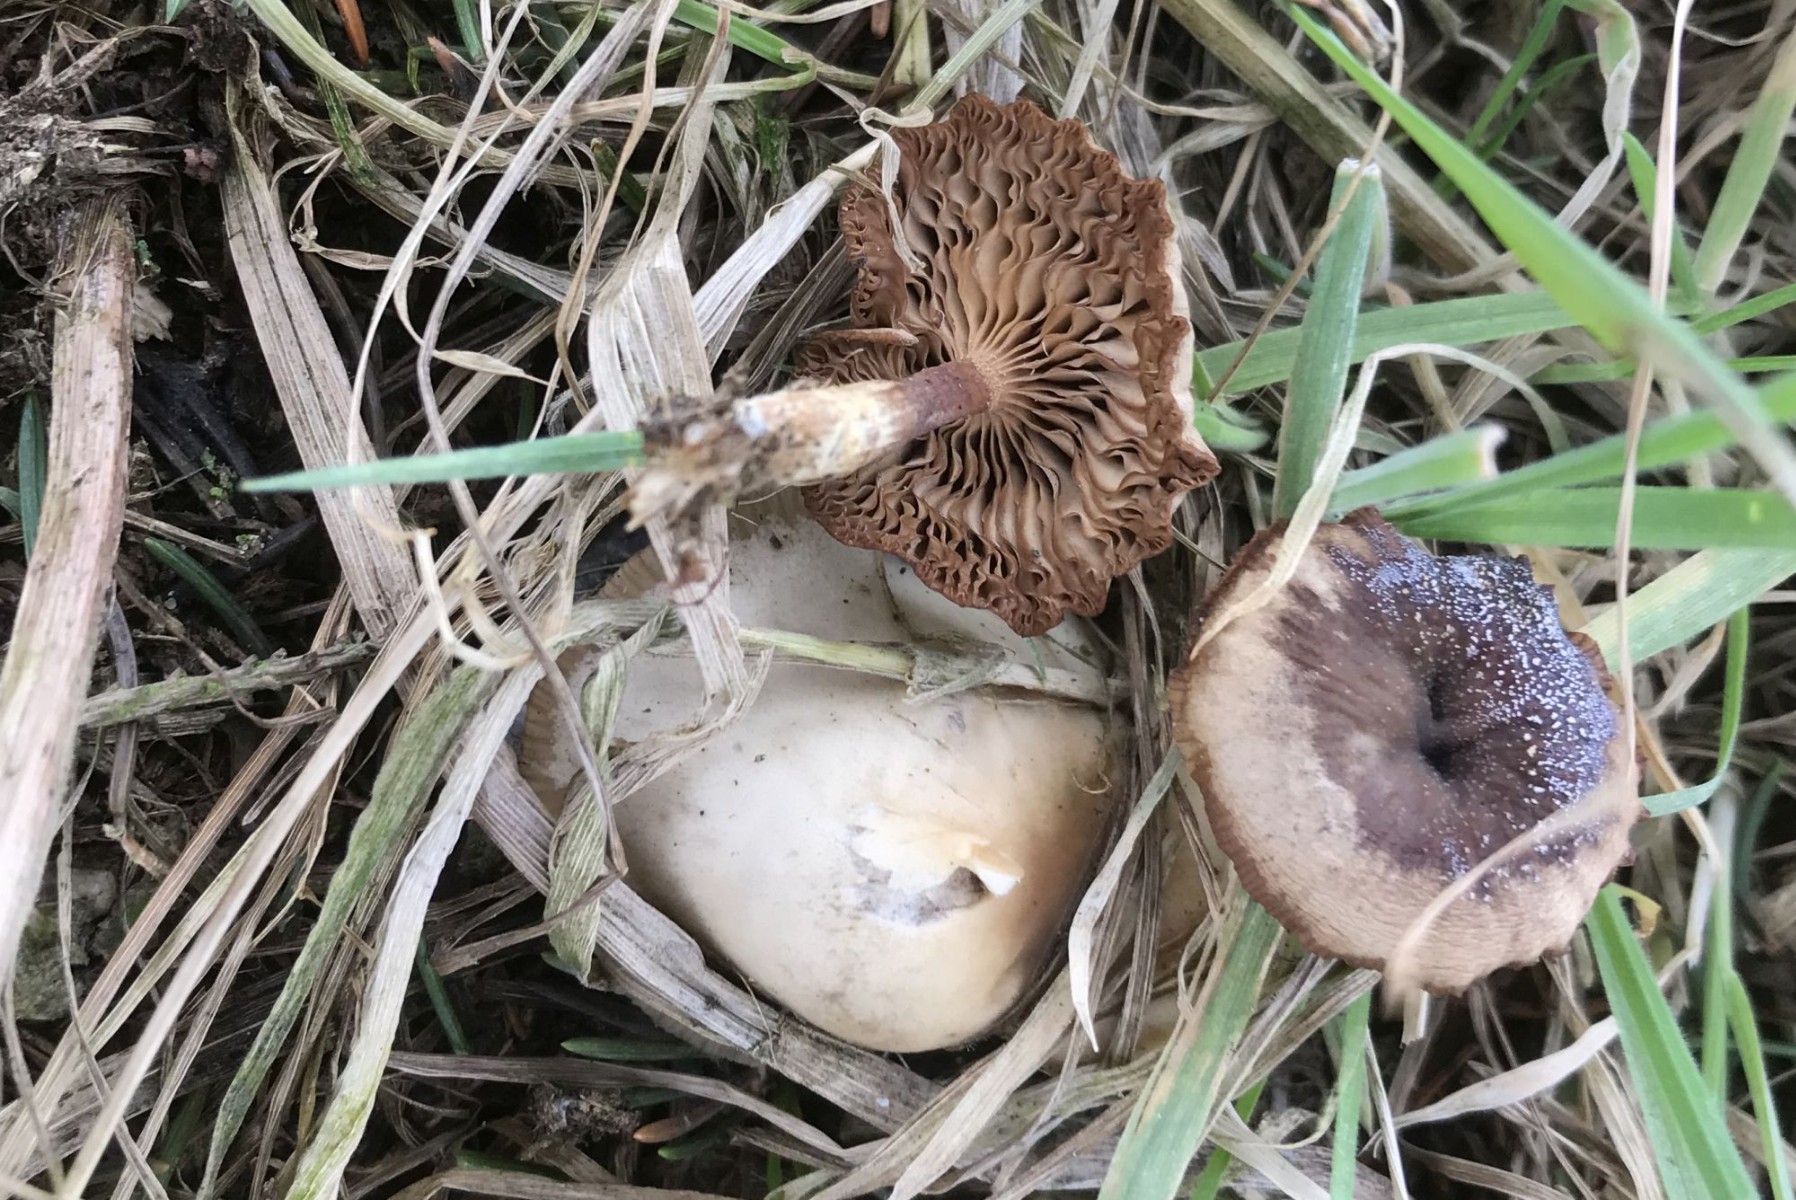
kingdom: Fungi
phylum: Basidiomycota
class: Agaricomycetes
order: Agaricales
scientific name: Agaricales
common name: champignonordenen
